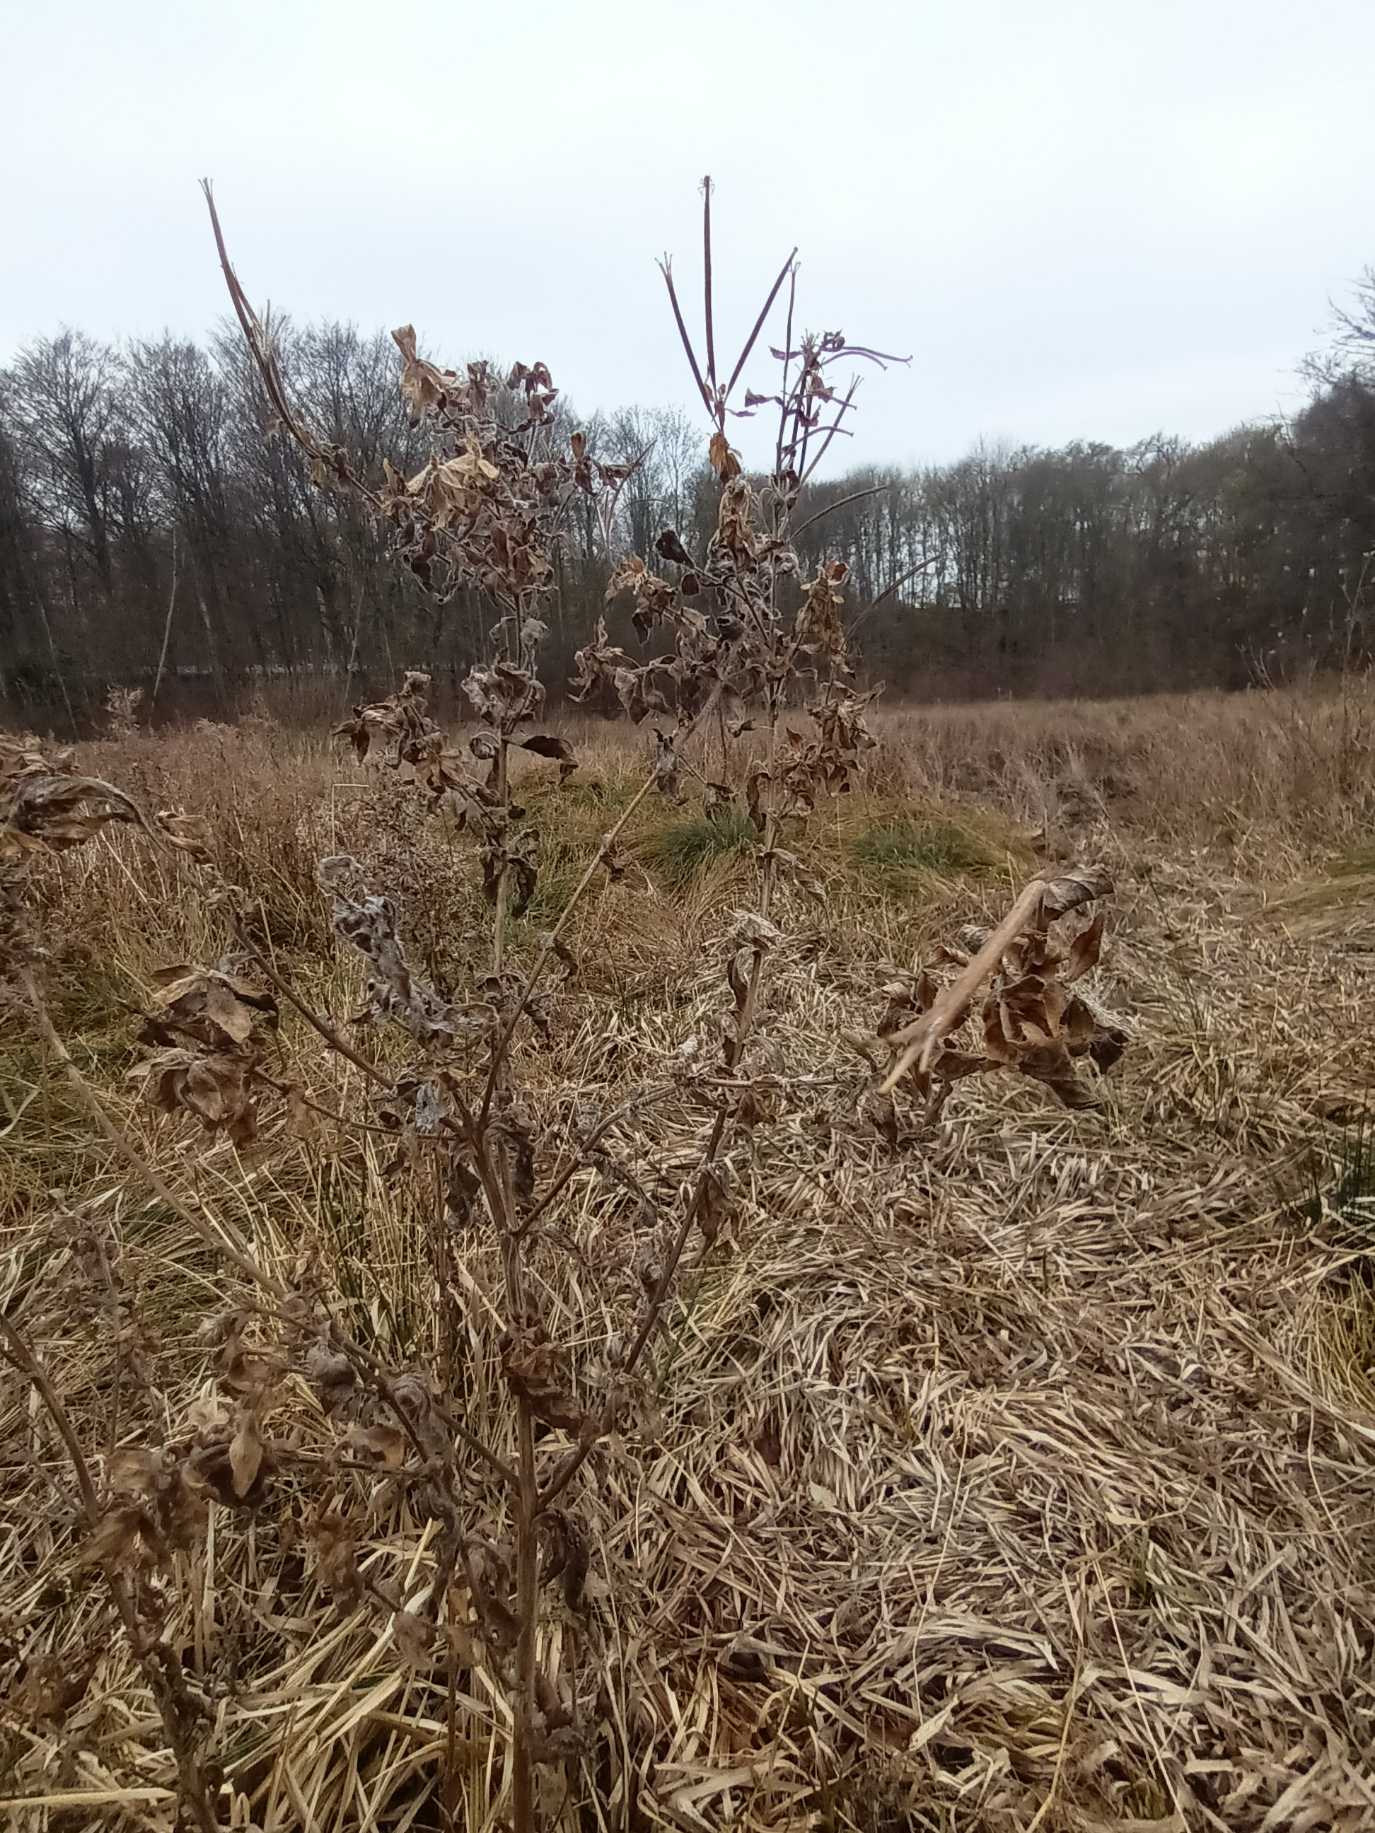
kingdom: Plantae
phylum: Tracheophyta
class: Magnoliopsida
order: Myrtales
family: Onagraceae
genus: Epilobium
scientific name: Epilobium hirsutum
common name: Lådden dueurt
